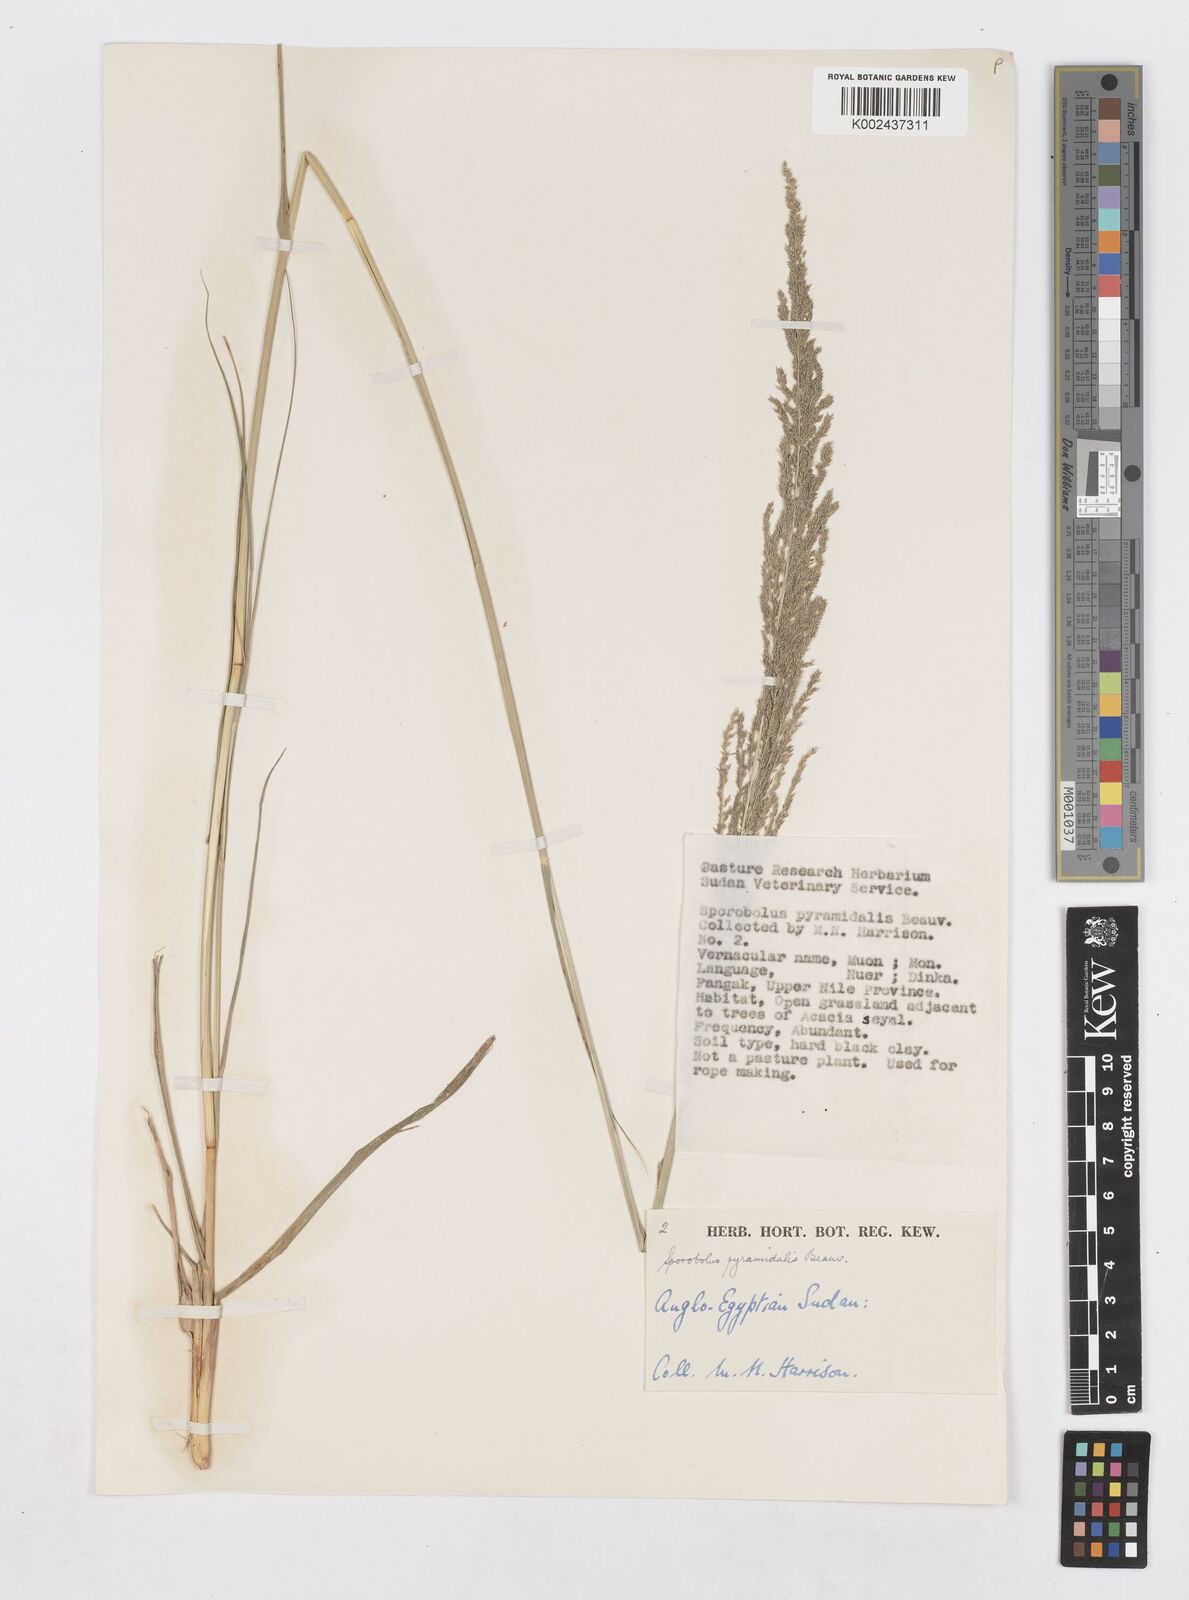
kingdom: Plantae
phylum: Tracheophyta
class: Liliopsida
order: Poales
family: Poaceae
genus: Sporobolus
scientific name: Sporobolus pyramidalis
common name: West indian dropseed
